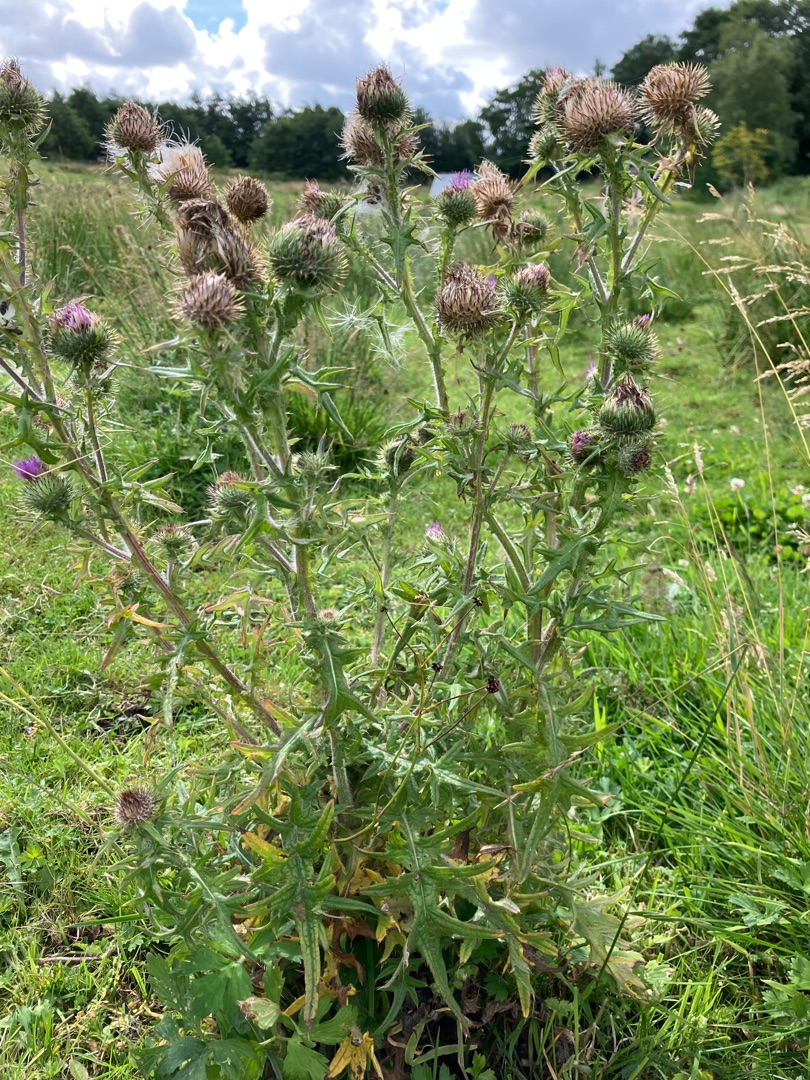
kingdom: Plantae
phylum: Tracheophyta
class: Magnoliopsida
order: Asterales
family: Asteraceae
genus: Cirsium
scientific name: Cirsium vulgare
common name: Horse-tidsel
